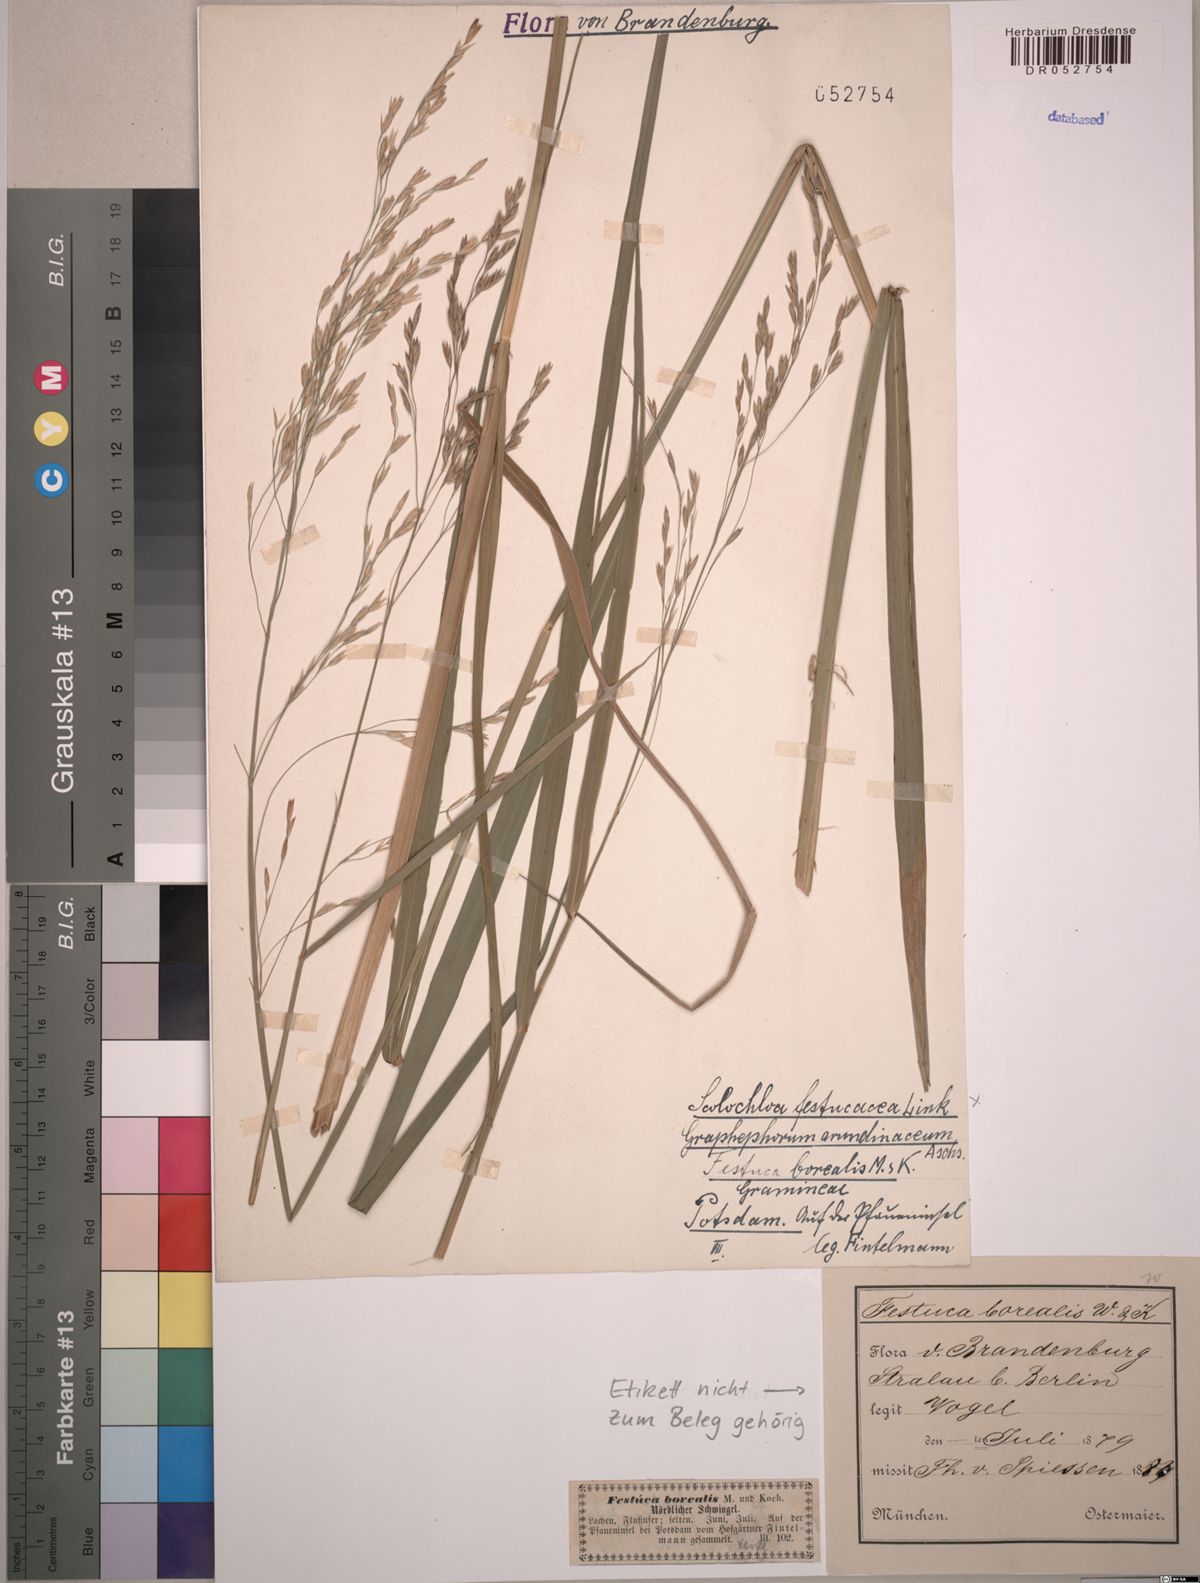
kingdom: Plantae
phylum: Tracheophyta
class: Liliopsida
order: Poales
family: Poaceae
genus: Scolochloa
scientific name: Scolochloa festucacea
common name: Common rivergrass
